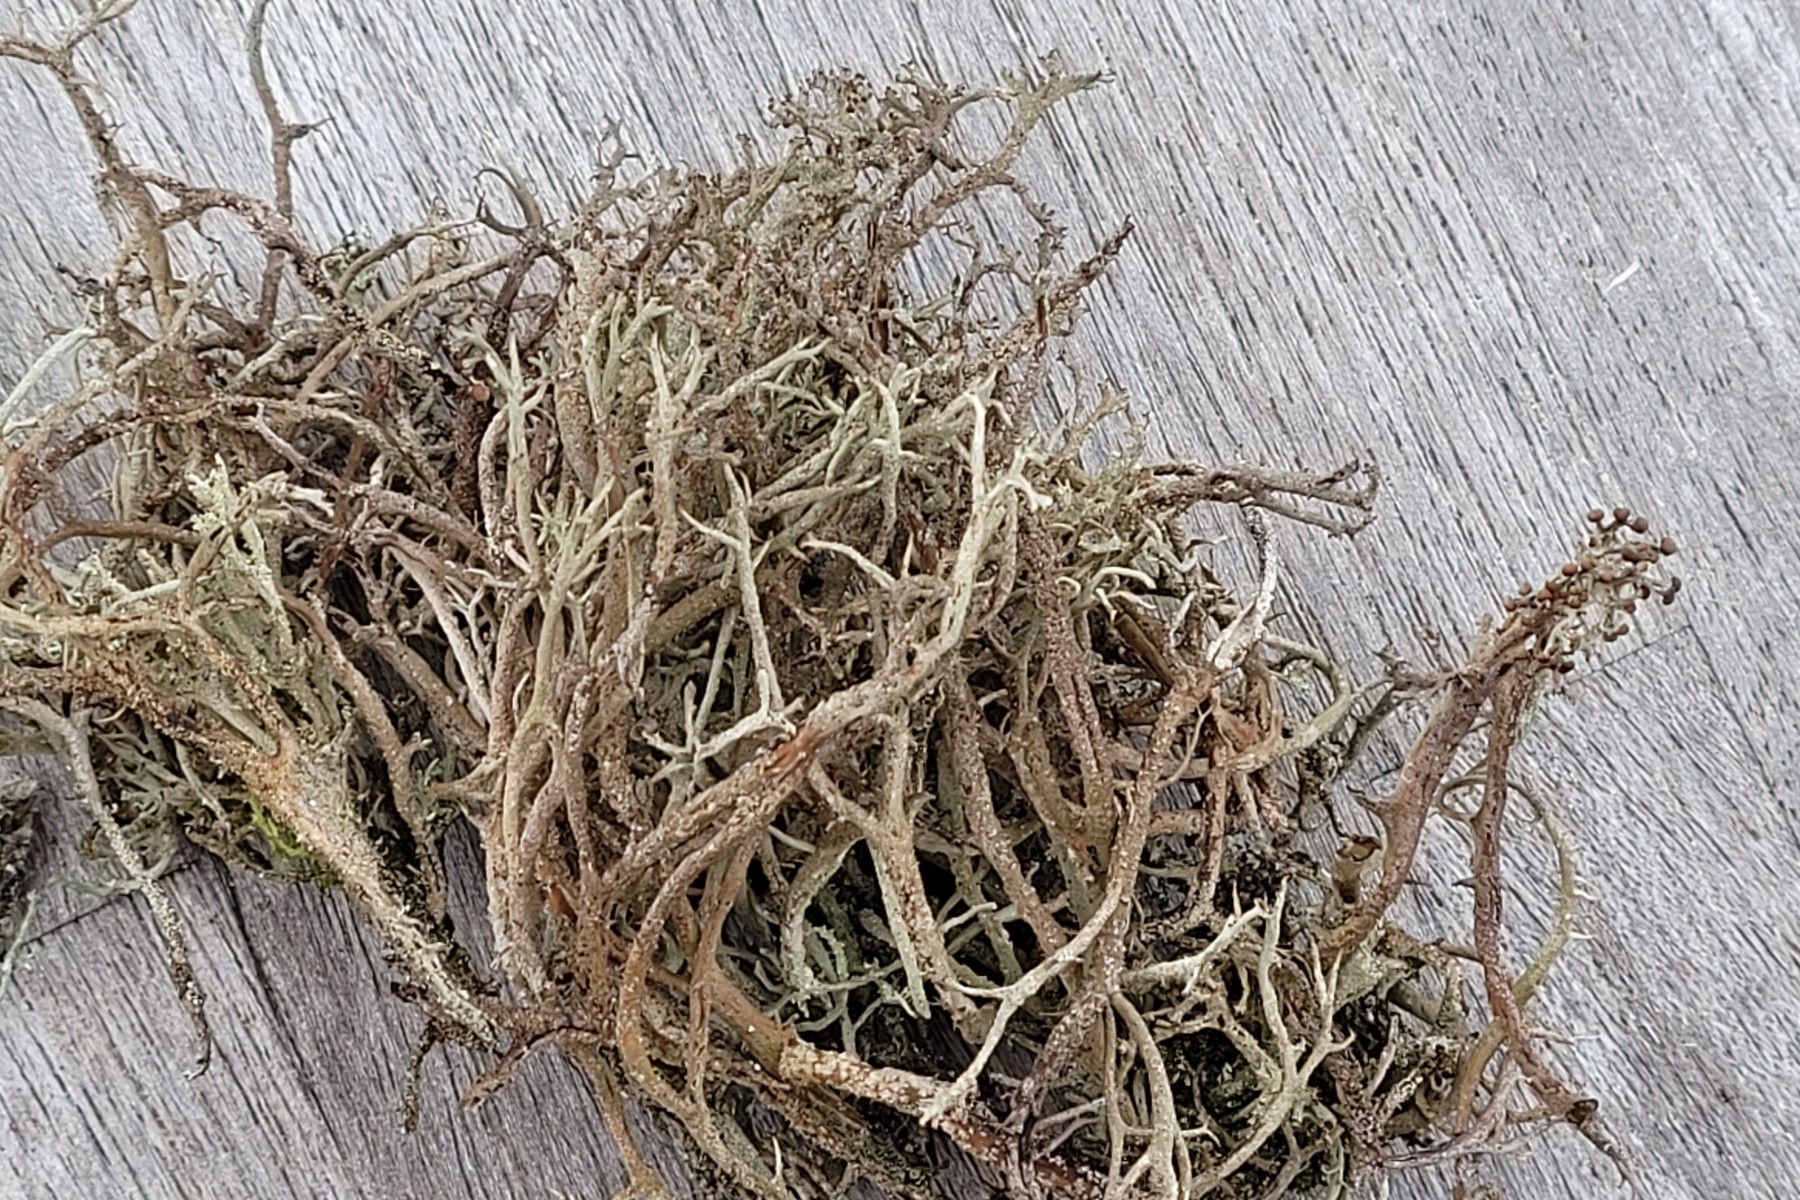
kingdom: Fungi
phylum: Ascomycota
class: Lecanoromycetes
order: Lecanorales
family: Cladoniaceae
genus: Cladonia
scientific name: Cladonia furcata
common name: kløftet bægerlav
